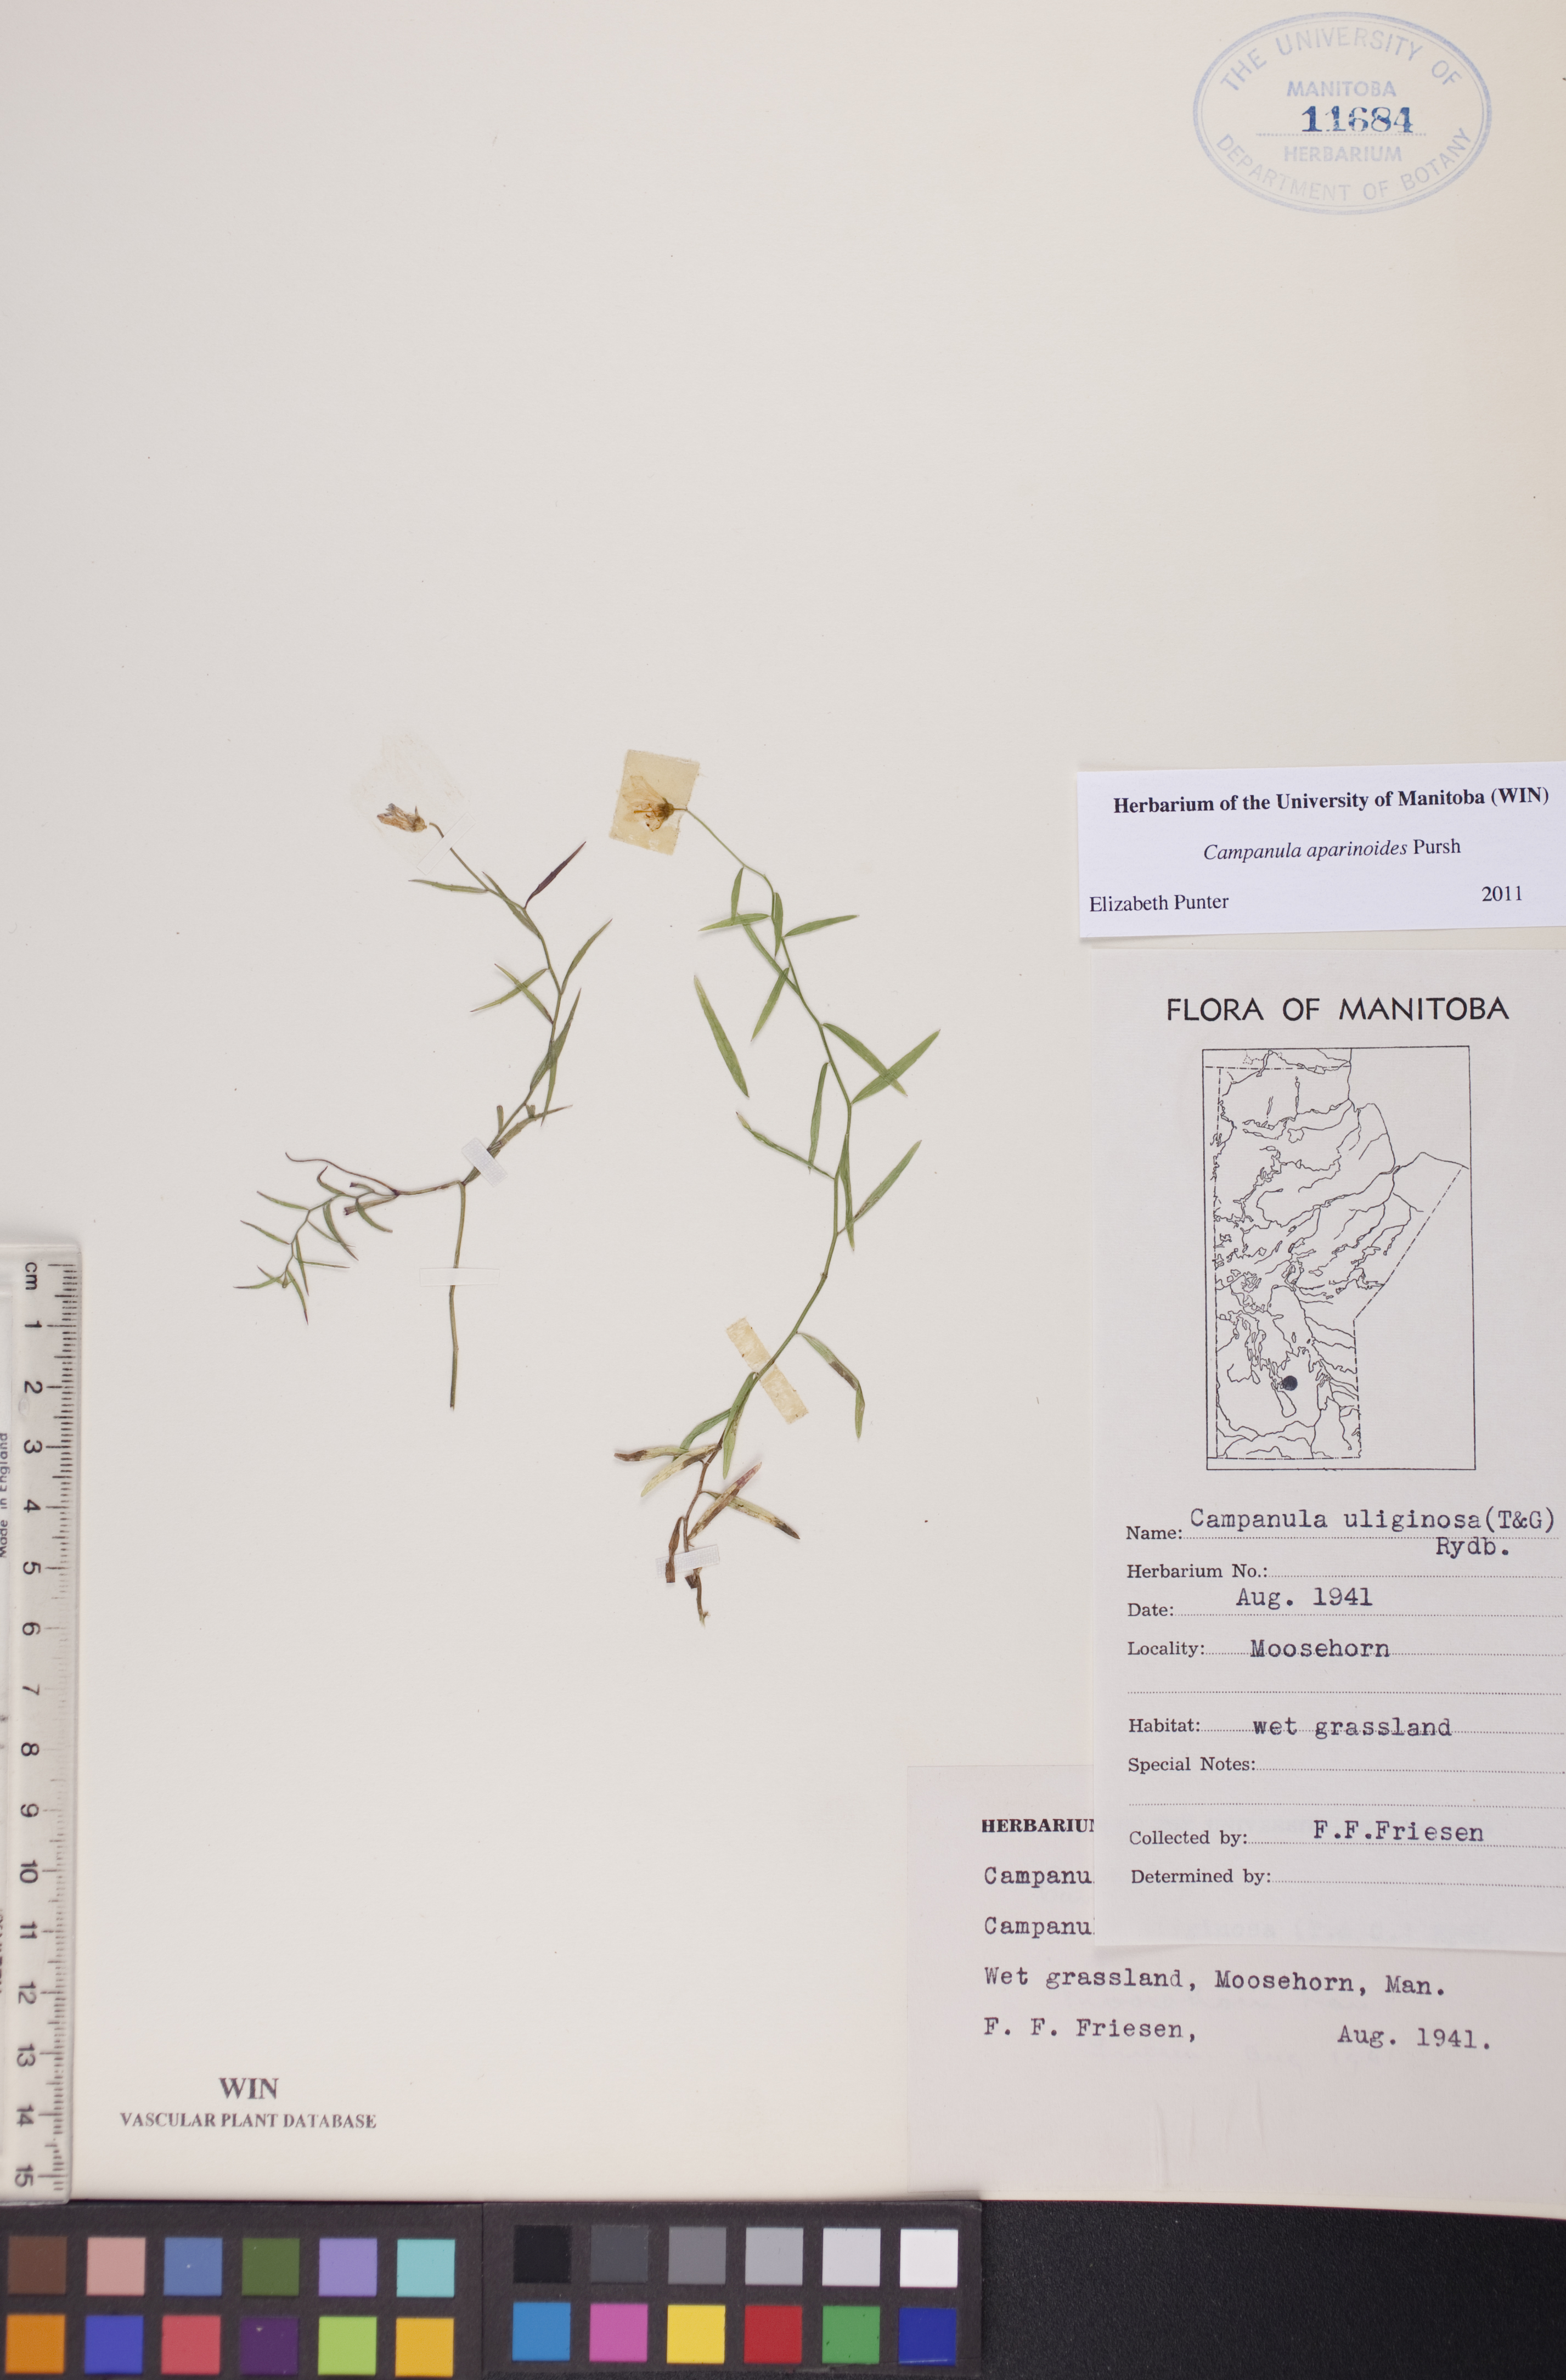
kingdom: Plantae
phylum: Tracheophyta
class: Magnoliopsida
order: Asterales
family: Campanulaceae
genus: Palustricodon
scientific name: Palustricodon aparinoides
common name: Bedstraw bellflower
